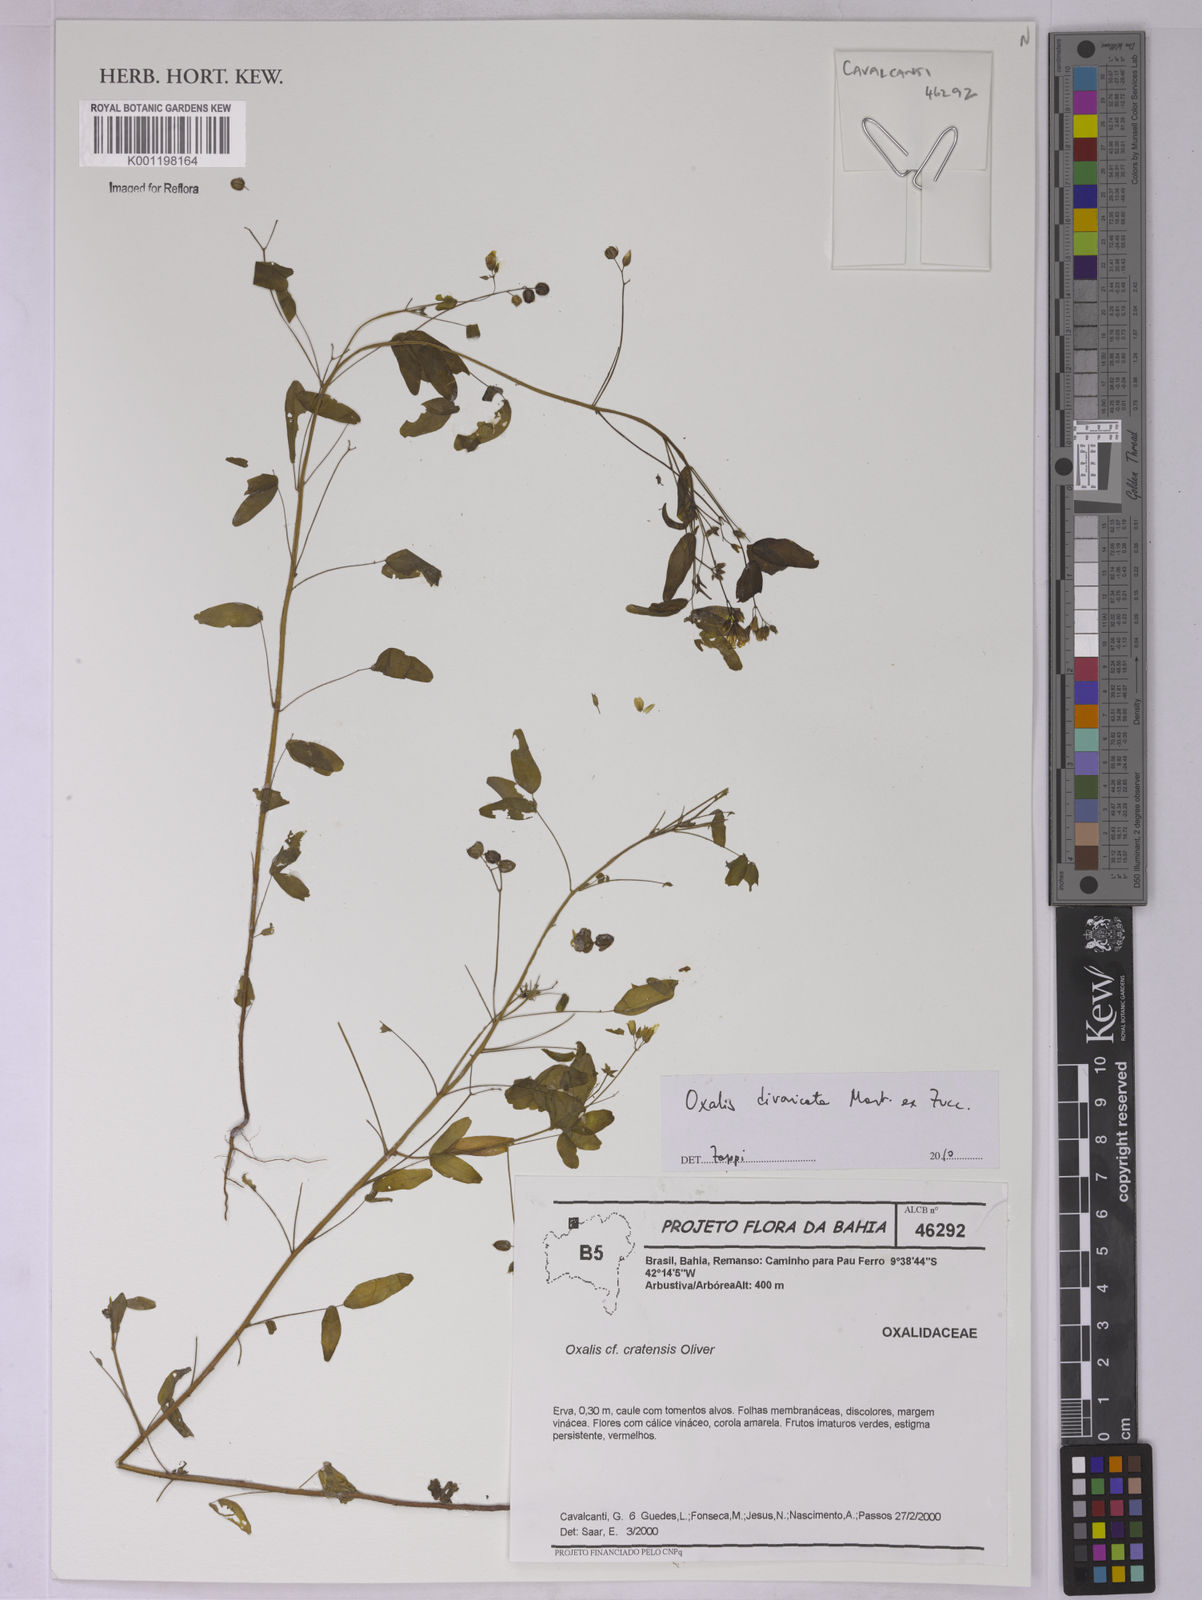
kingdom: Plantae
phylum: Tracheophyta
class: Magnoliopsida
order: Oxalidales
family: Oxalidaceae
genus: Oxalis
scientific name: Oxalis divaricata
